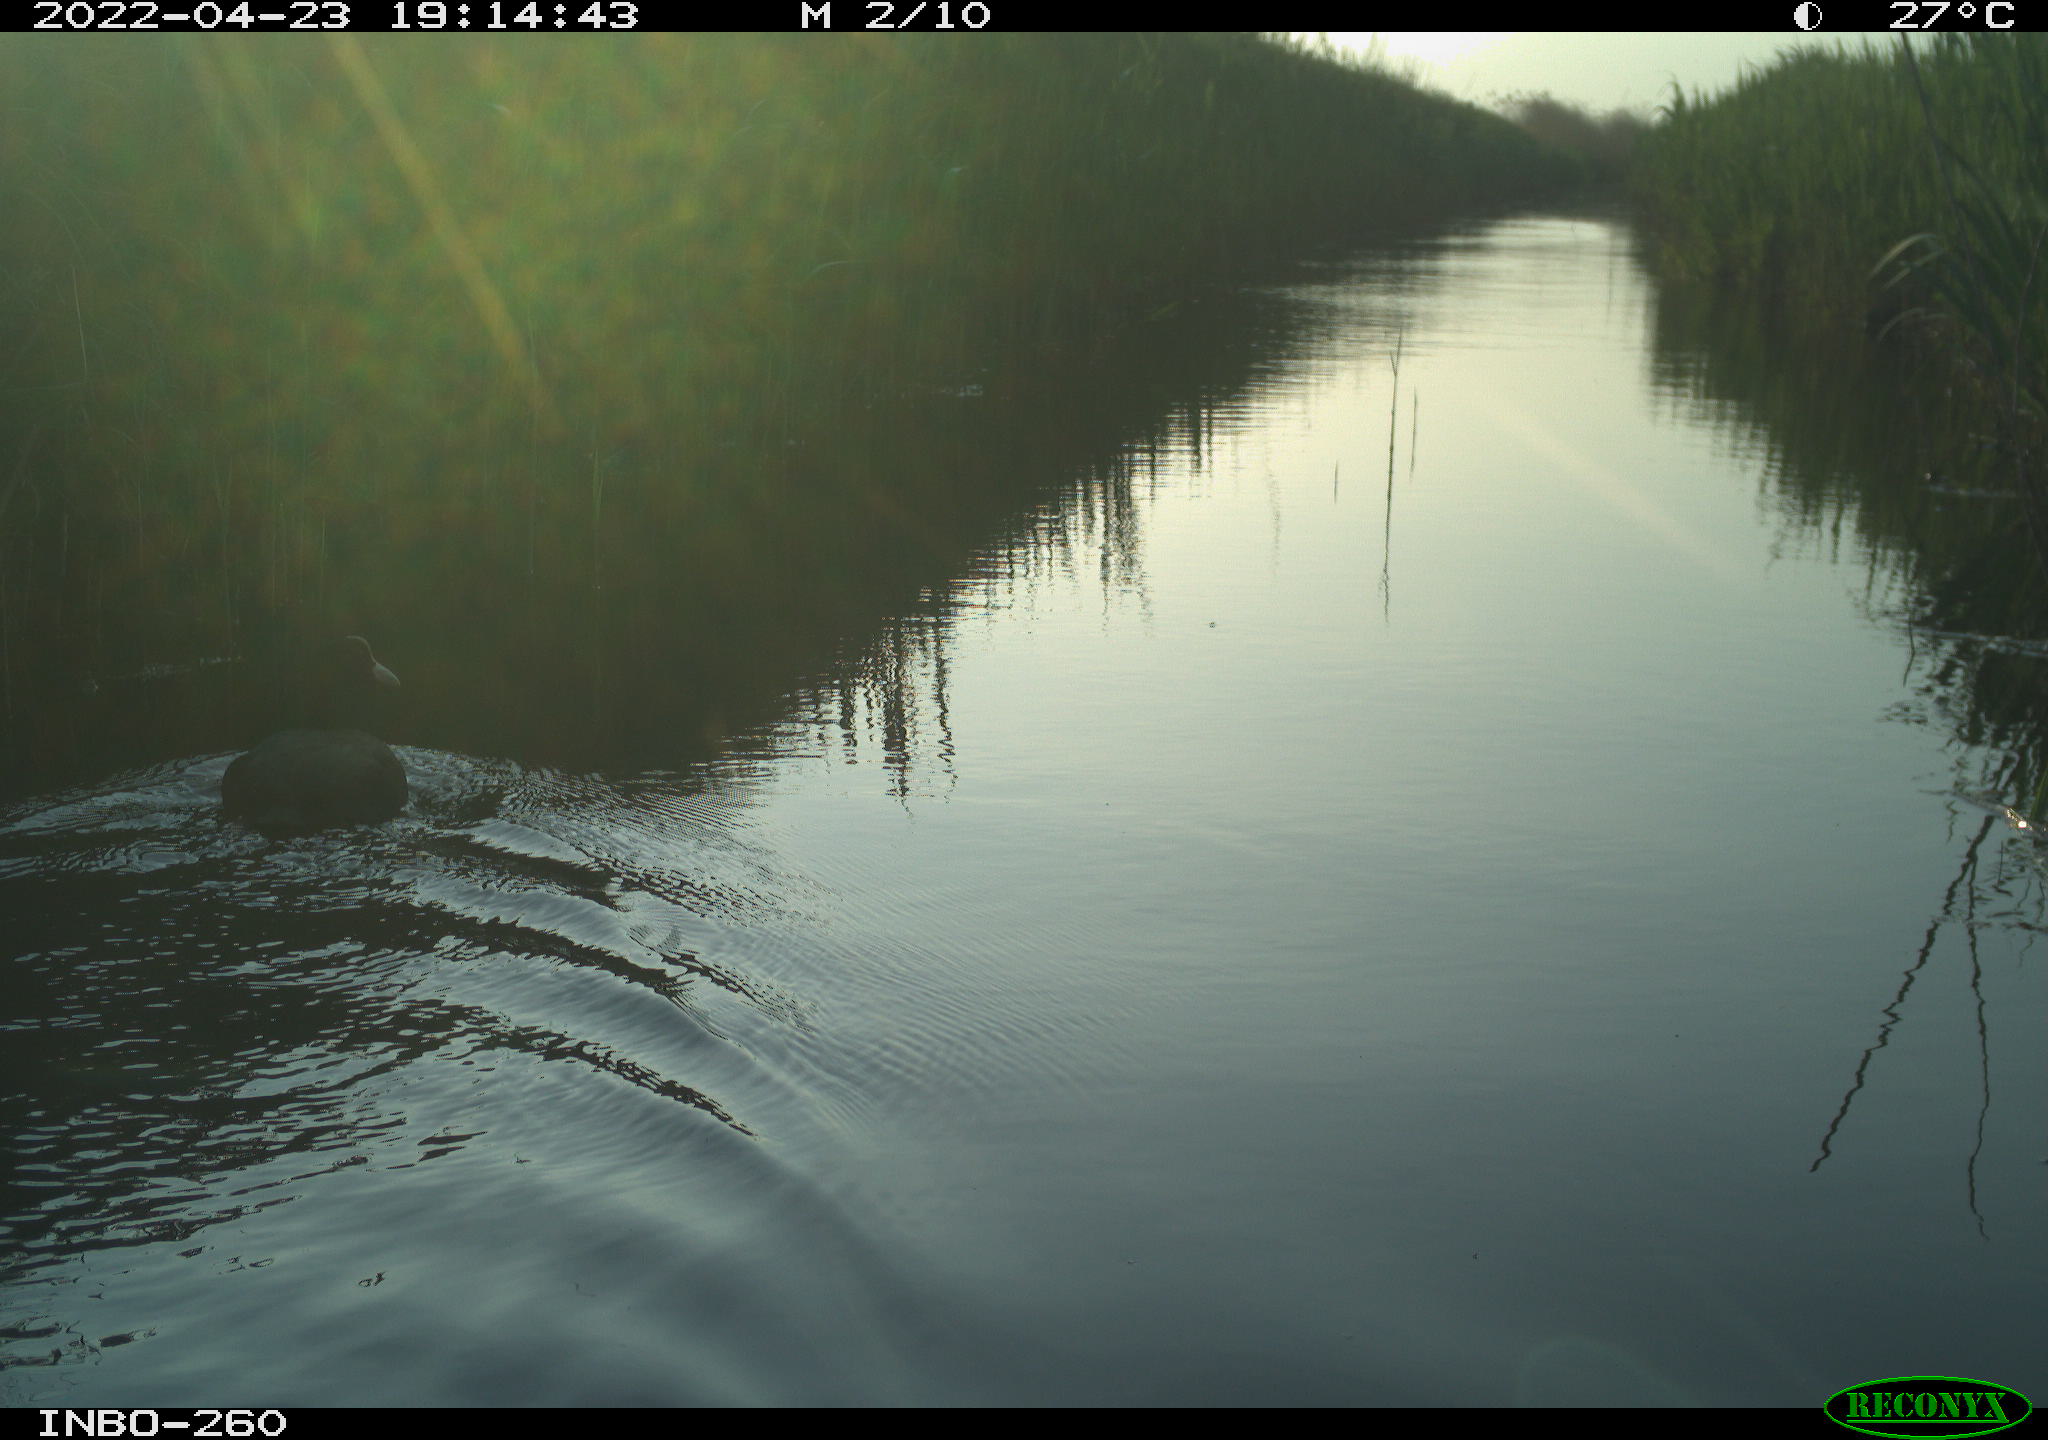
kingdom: Animalia
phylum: Chordata
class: Aves
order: Gruiformes
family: Rallidae
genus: Fulica
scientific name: Fulica atra
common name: Eurasian coot
